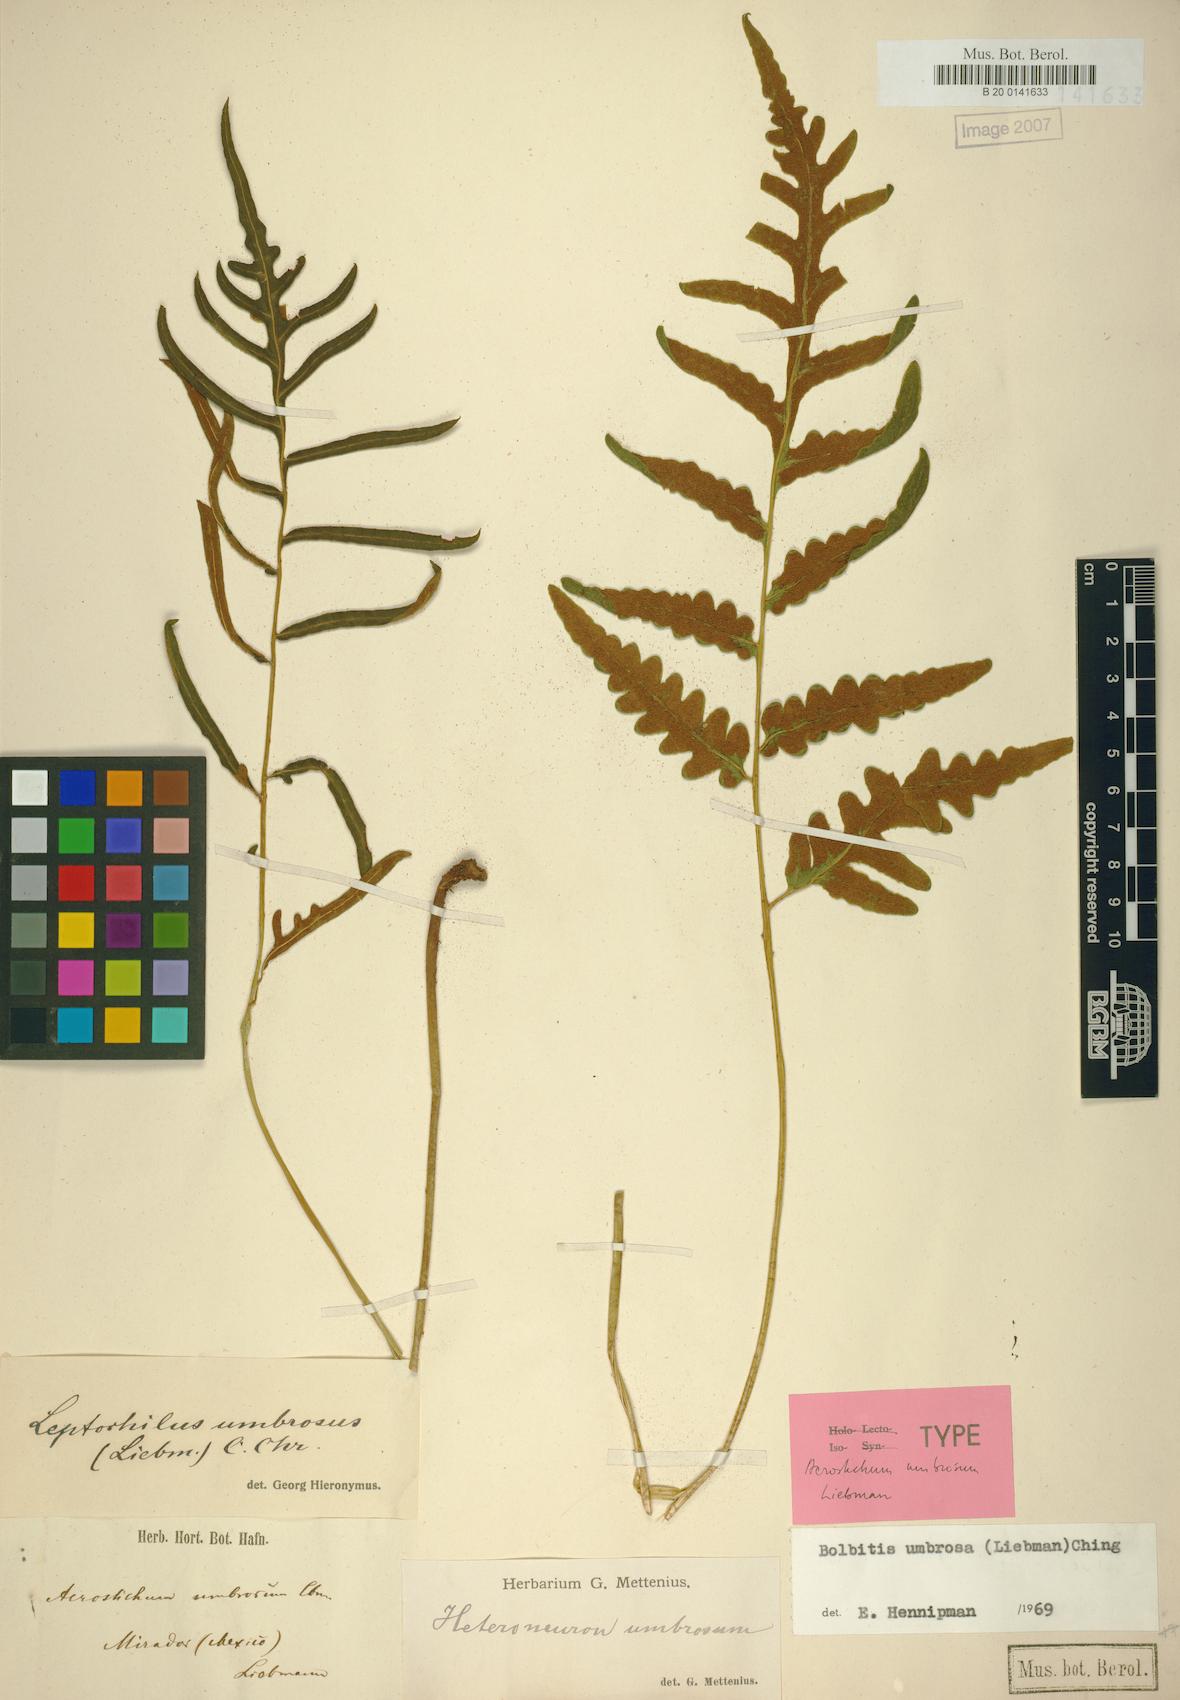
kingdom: Plantae
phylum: Tracheophyta
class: Polypodiopsida
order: Polypodiales
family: Dryopteridaceae
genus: Bolbitis
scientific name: Bolbitis umbrosa
